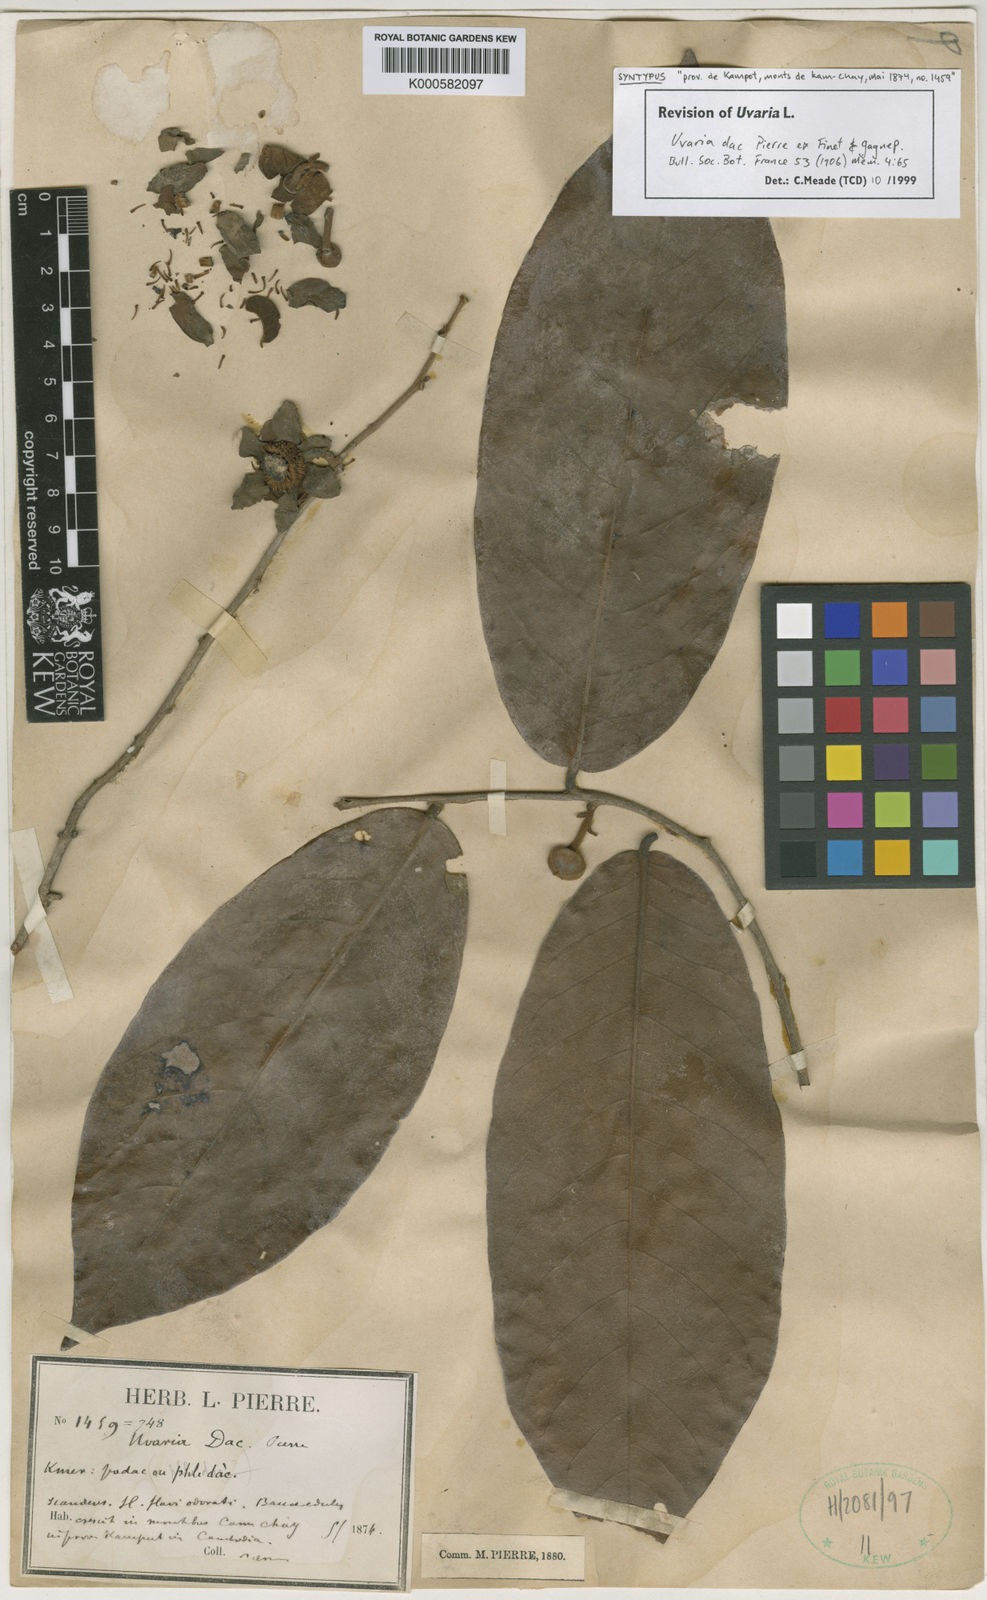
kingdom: Plantae
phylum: Tracheophyta
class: Magnoliopsida
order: Magnoliales
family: Annonaceae
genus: Uvaria
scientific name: Uvaria dac
